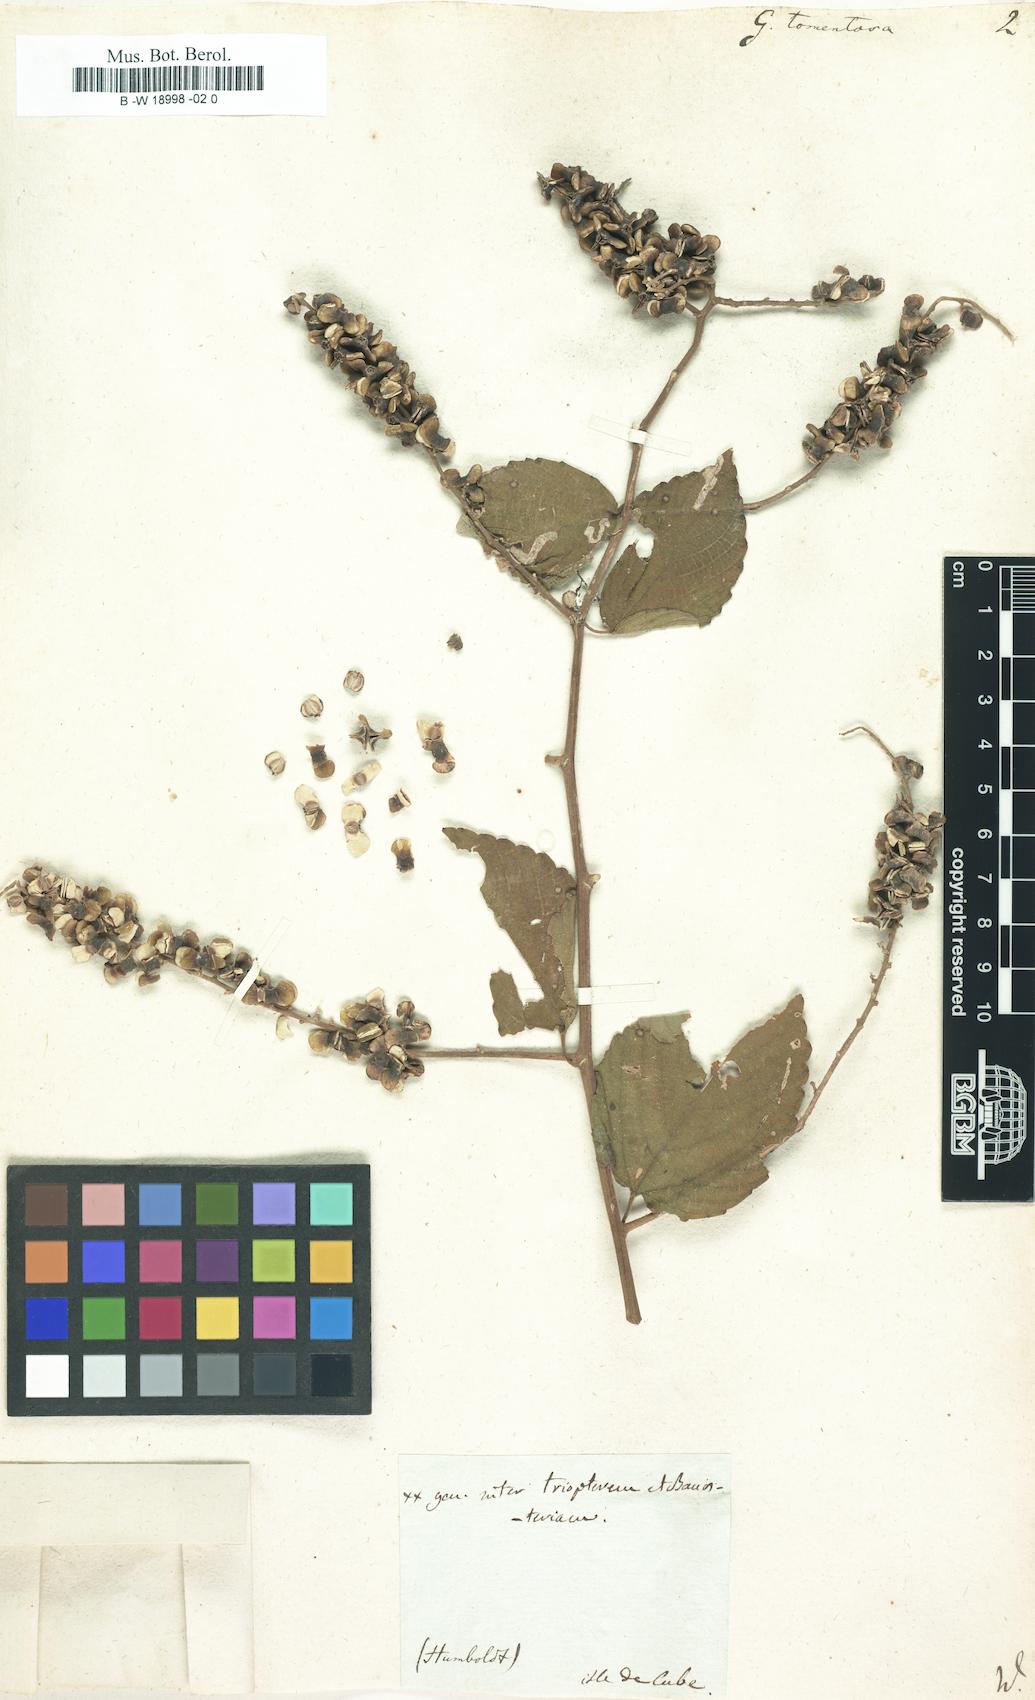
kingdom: Plantae
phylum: Tracheophyta
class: Magnoliopsida
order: Rosales
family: Rhamnaceae
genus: Gouania
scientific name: Gouania polygama
